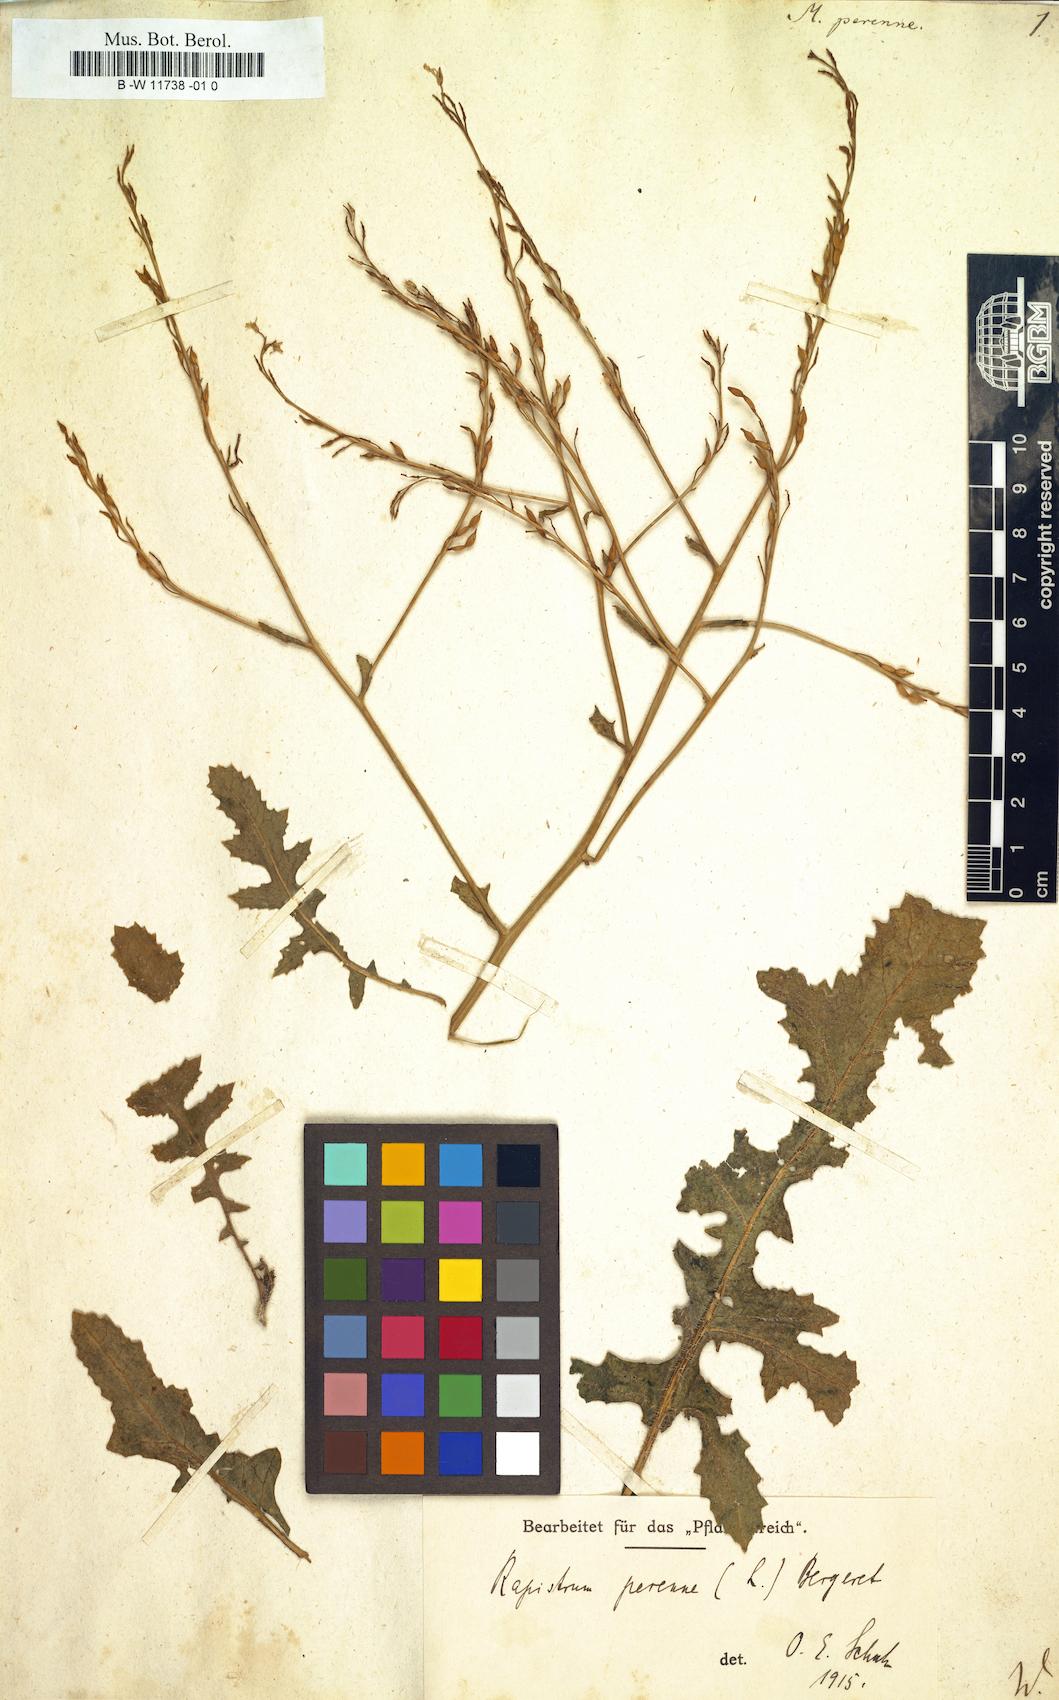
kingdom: Plantae
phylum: Tracheophyta
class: Magnoliopsida
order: Brassicales
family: Brassicaceae
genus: Myagrum
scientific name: Myagrum perenne
